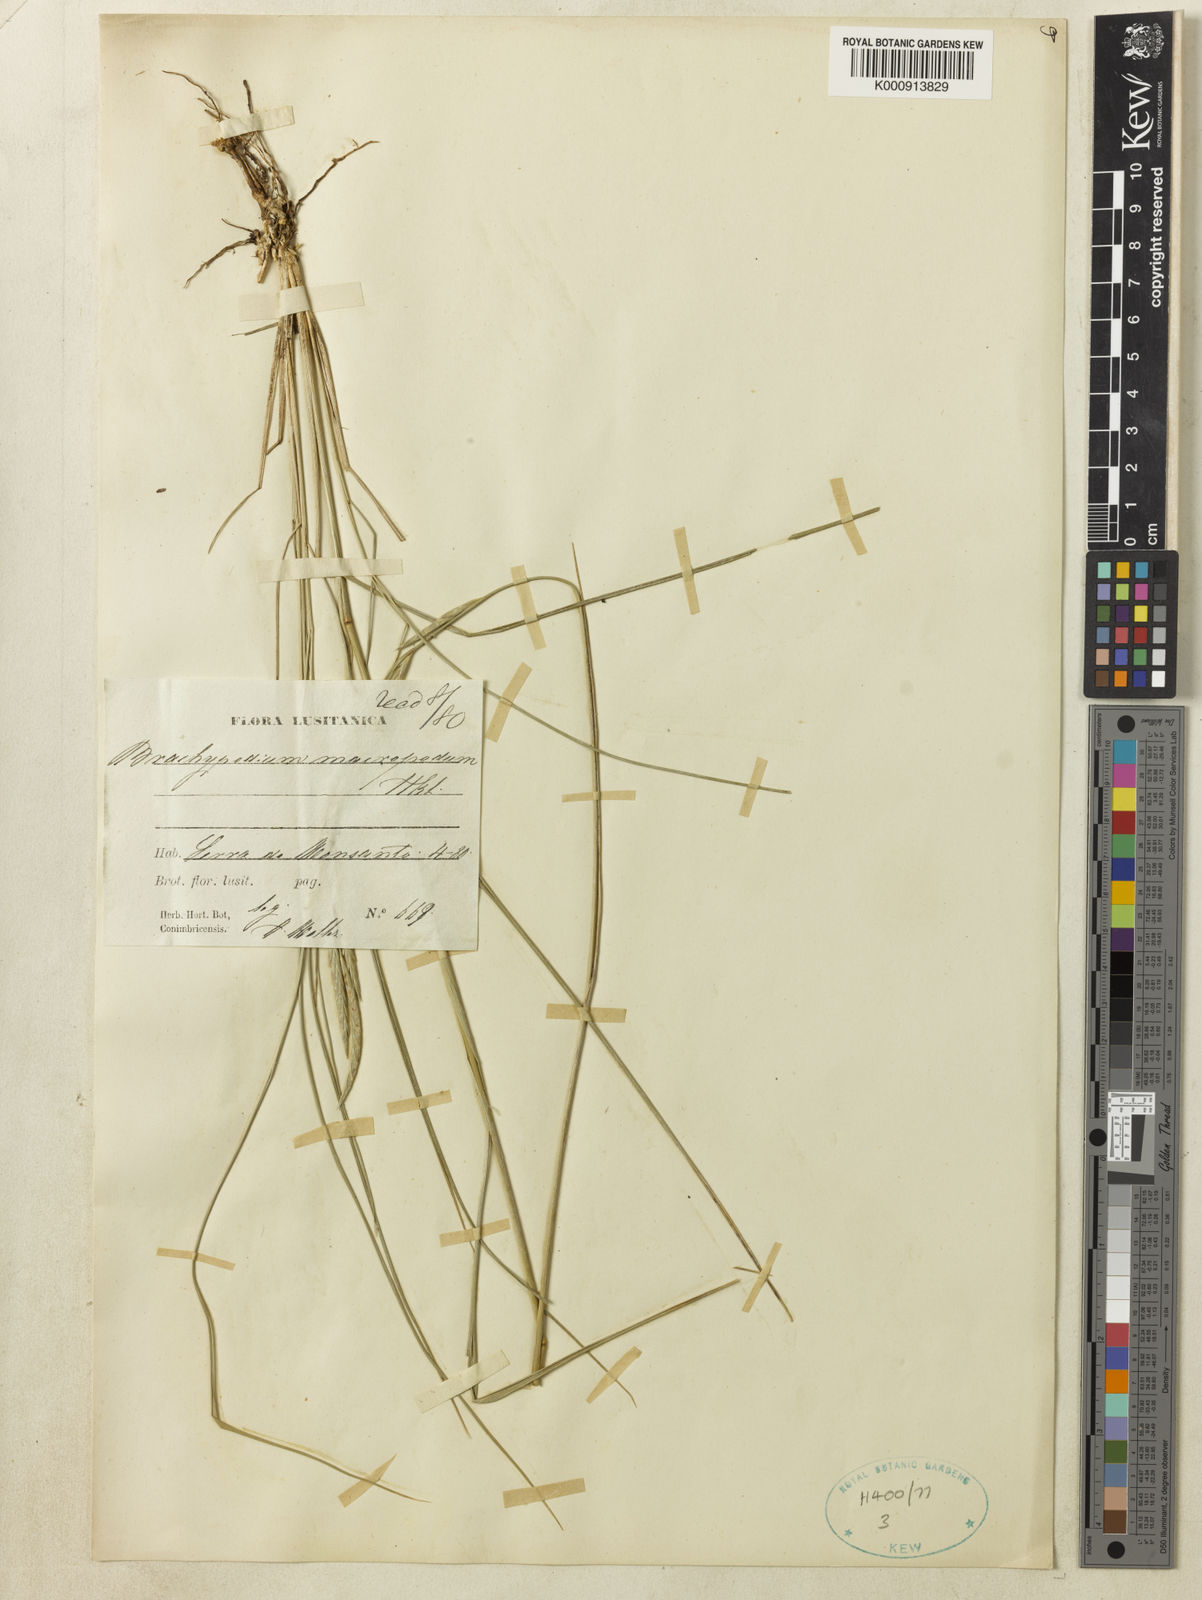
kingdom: Plantae
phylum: Tracheophyta
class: Liliopsida
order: Poales
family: Poaceae
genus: Brachypodium
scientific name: Brachypodium phoenicoides
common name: Thinleaf false brome
